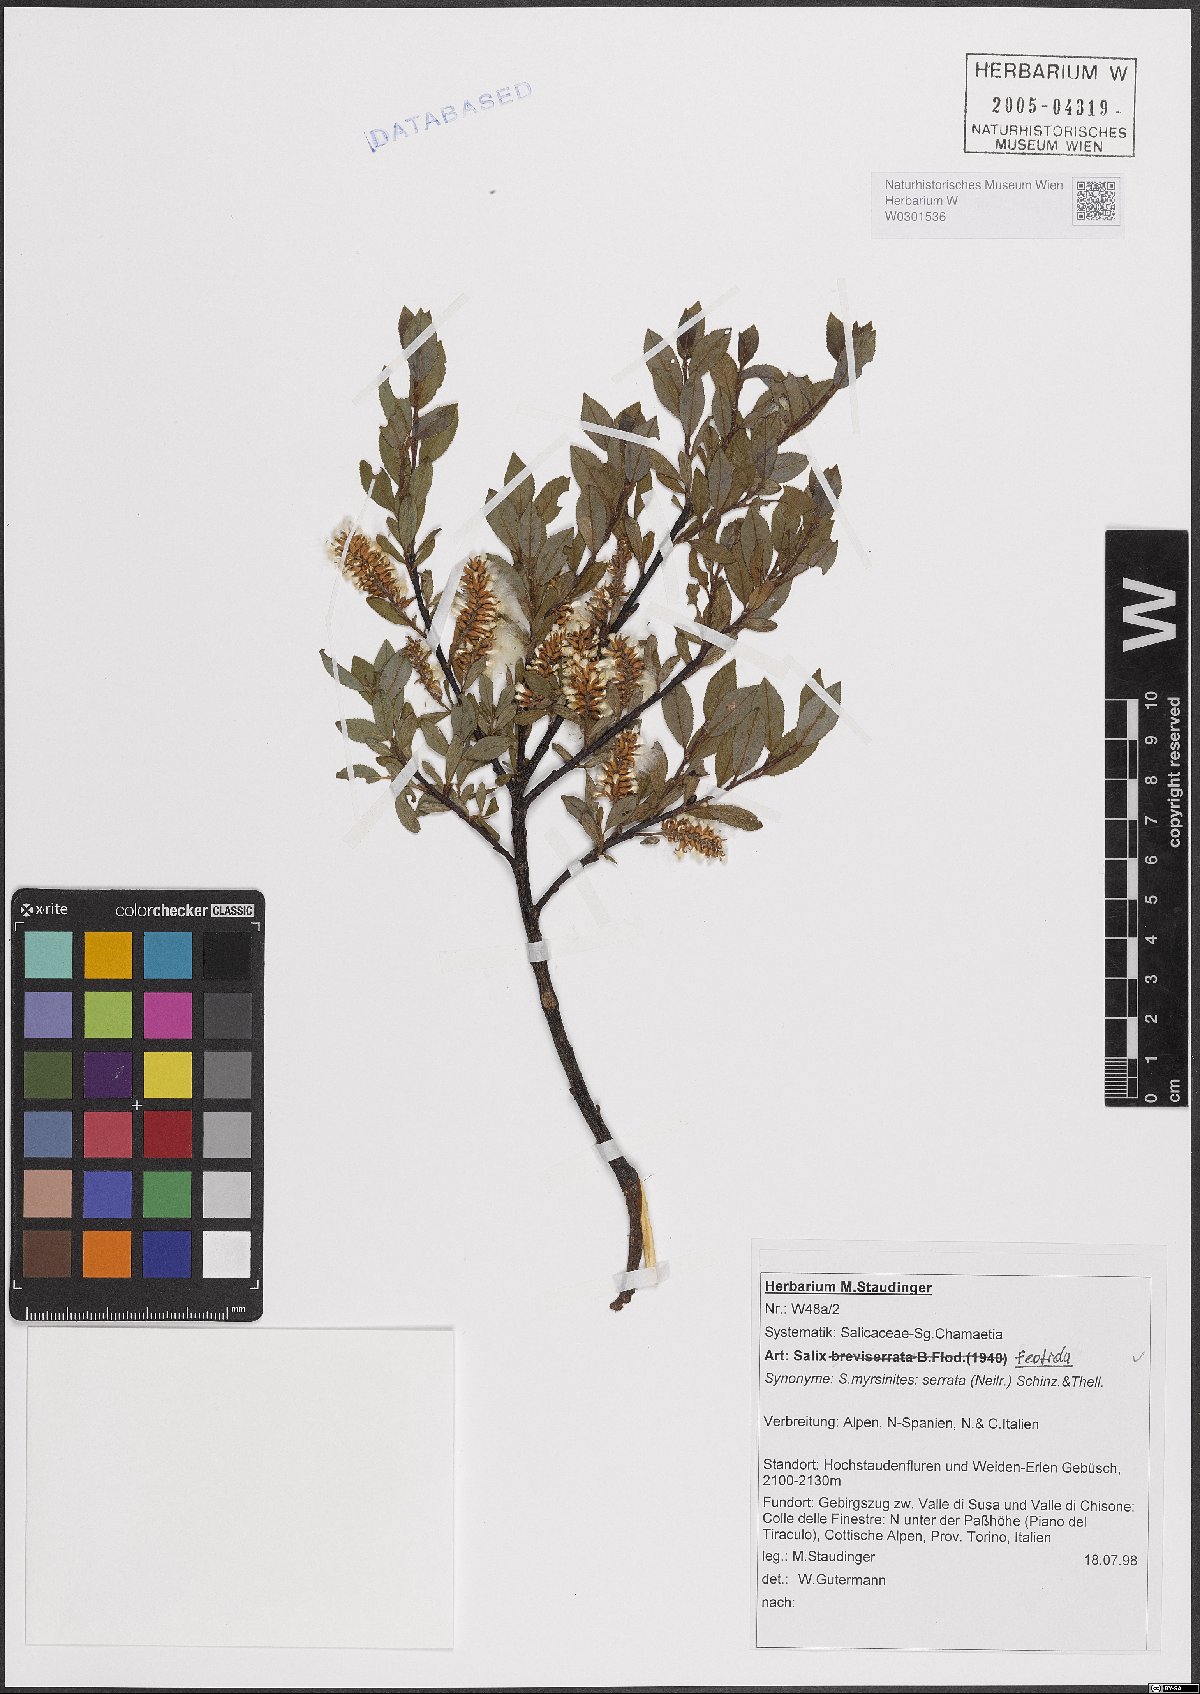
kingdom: Plantae
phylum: Tracheophyta
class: Magnoliopsida
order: Malpighiales
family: Salicaceae
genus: Salix
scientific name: Salix foetida
